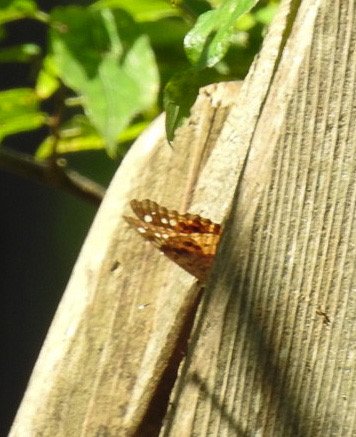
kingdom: Animalia
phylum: Arthropoda
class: Insecta
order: Lepidoptera
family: Nymphalidae
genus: Asterocampa
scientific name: Asterocampa celtis
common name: Hackberry Emperor
